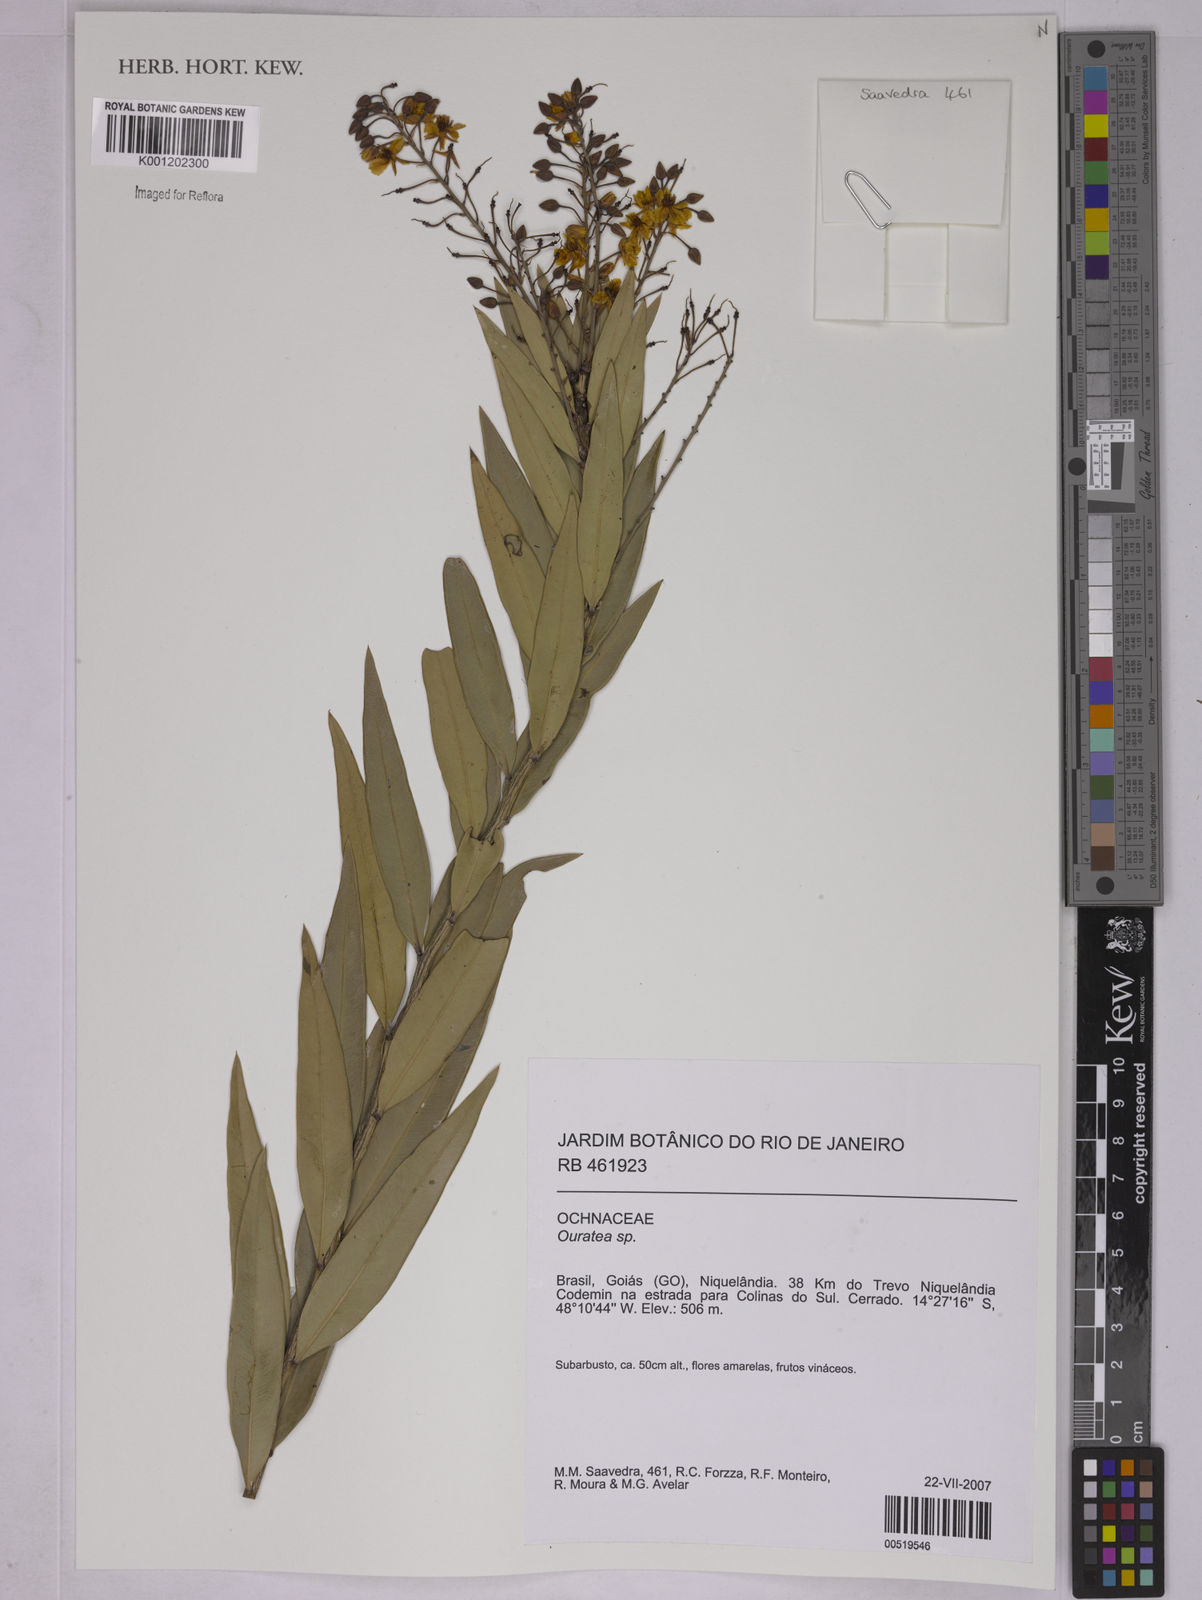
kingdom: Plantae
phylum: Tracheophyta
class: Magnoliopsida
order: Malpighiales
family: Ochnaceae
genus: Ouratea
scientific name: Ouratea
